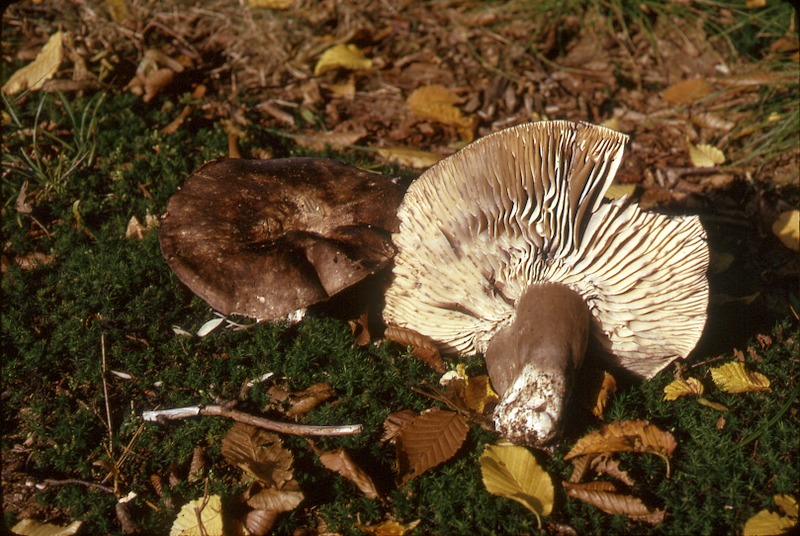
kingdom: Fungi
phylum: Basidiomycota
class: Agaricomycetes
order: Russulales
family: Russulaceae
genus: Russula
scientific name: Russula adusta
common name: Winecork brittlegill
